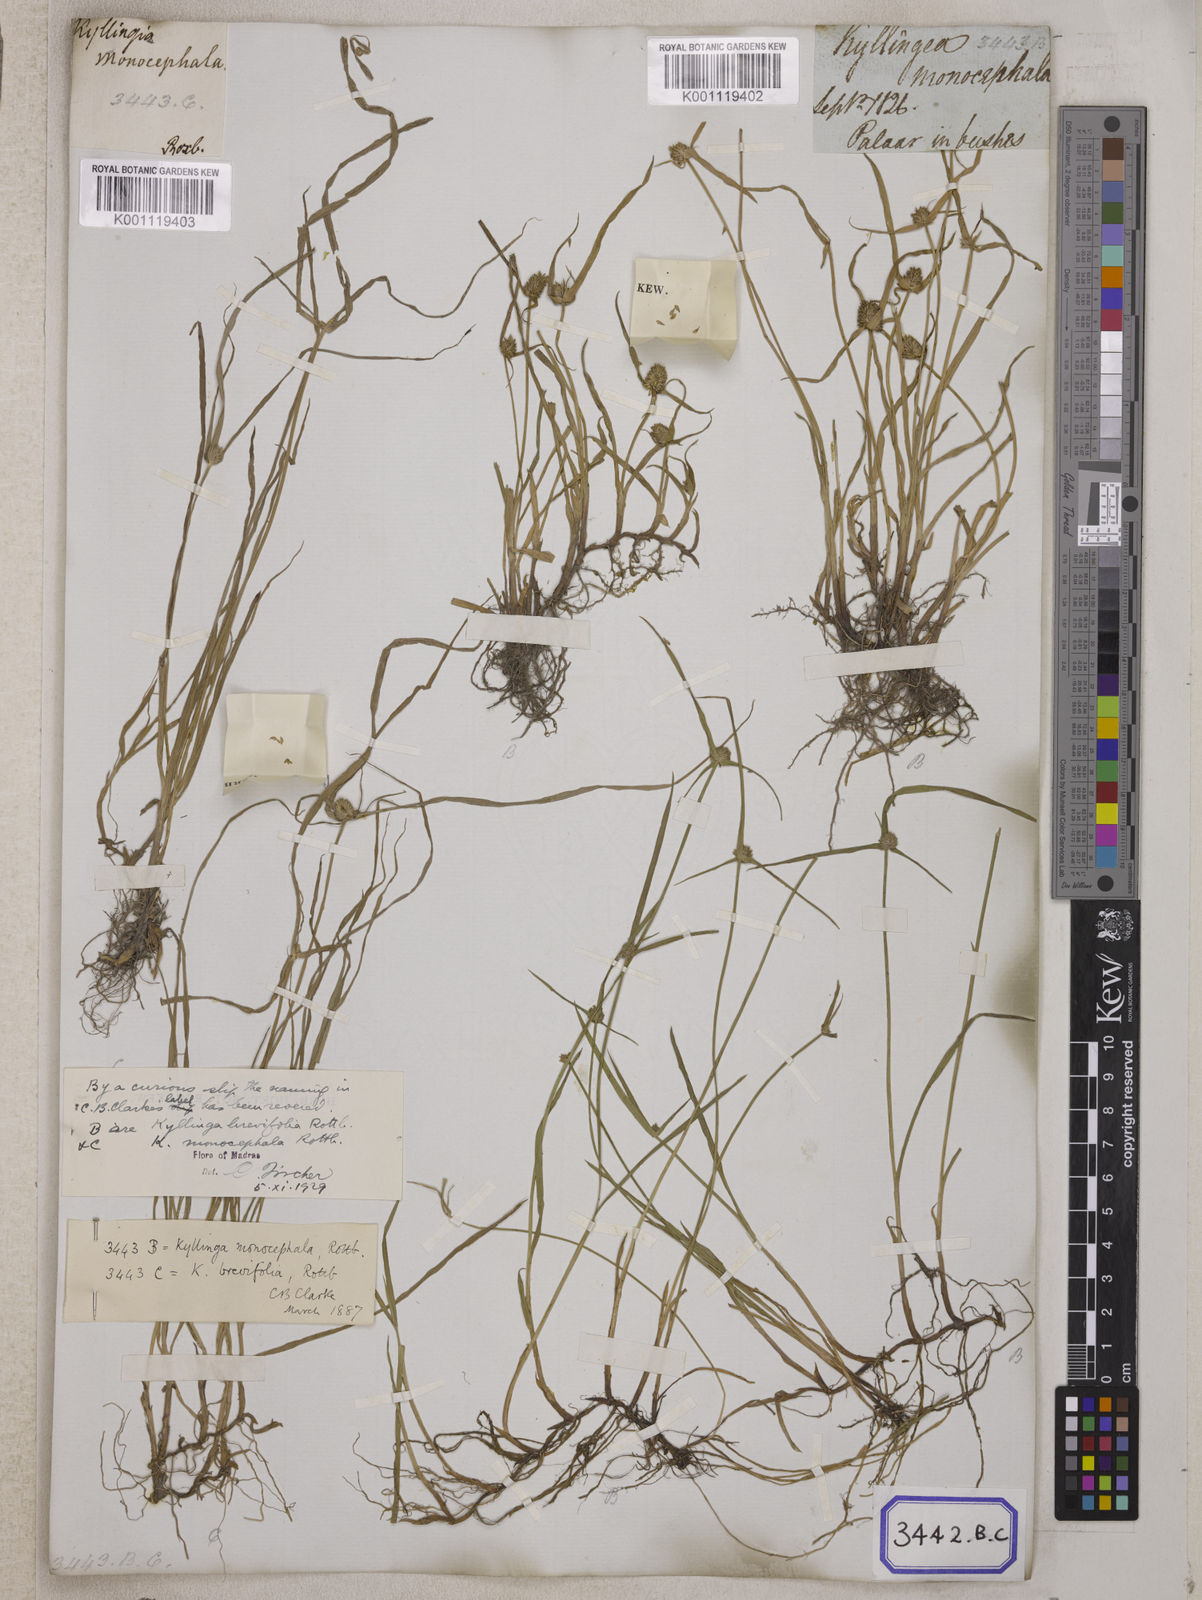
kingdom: Plantae
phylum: Tracheophyta
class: Liliopsida
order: Poales
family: Cyperaceae
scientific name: Cyperaceae
